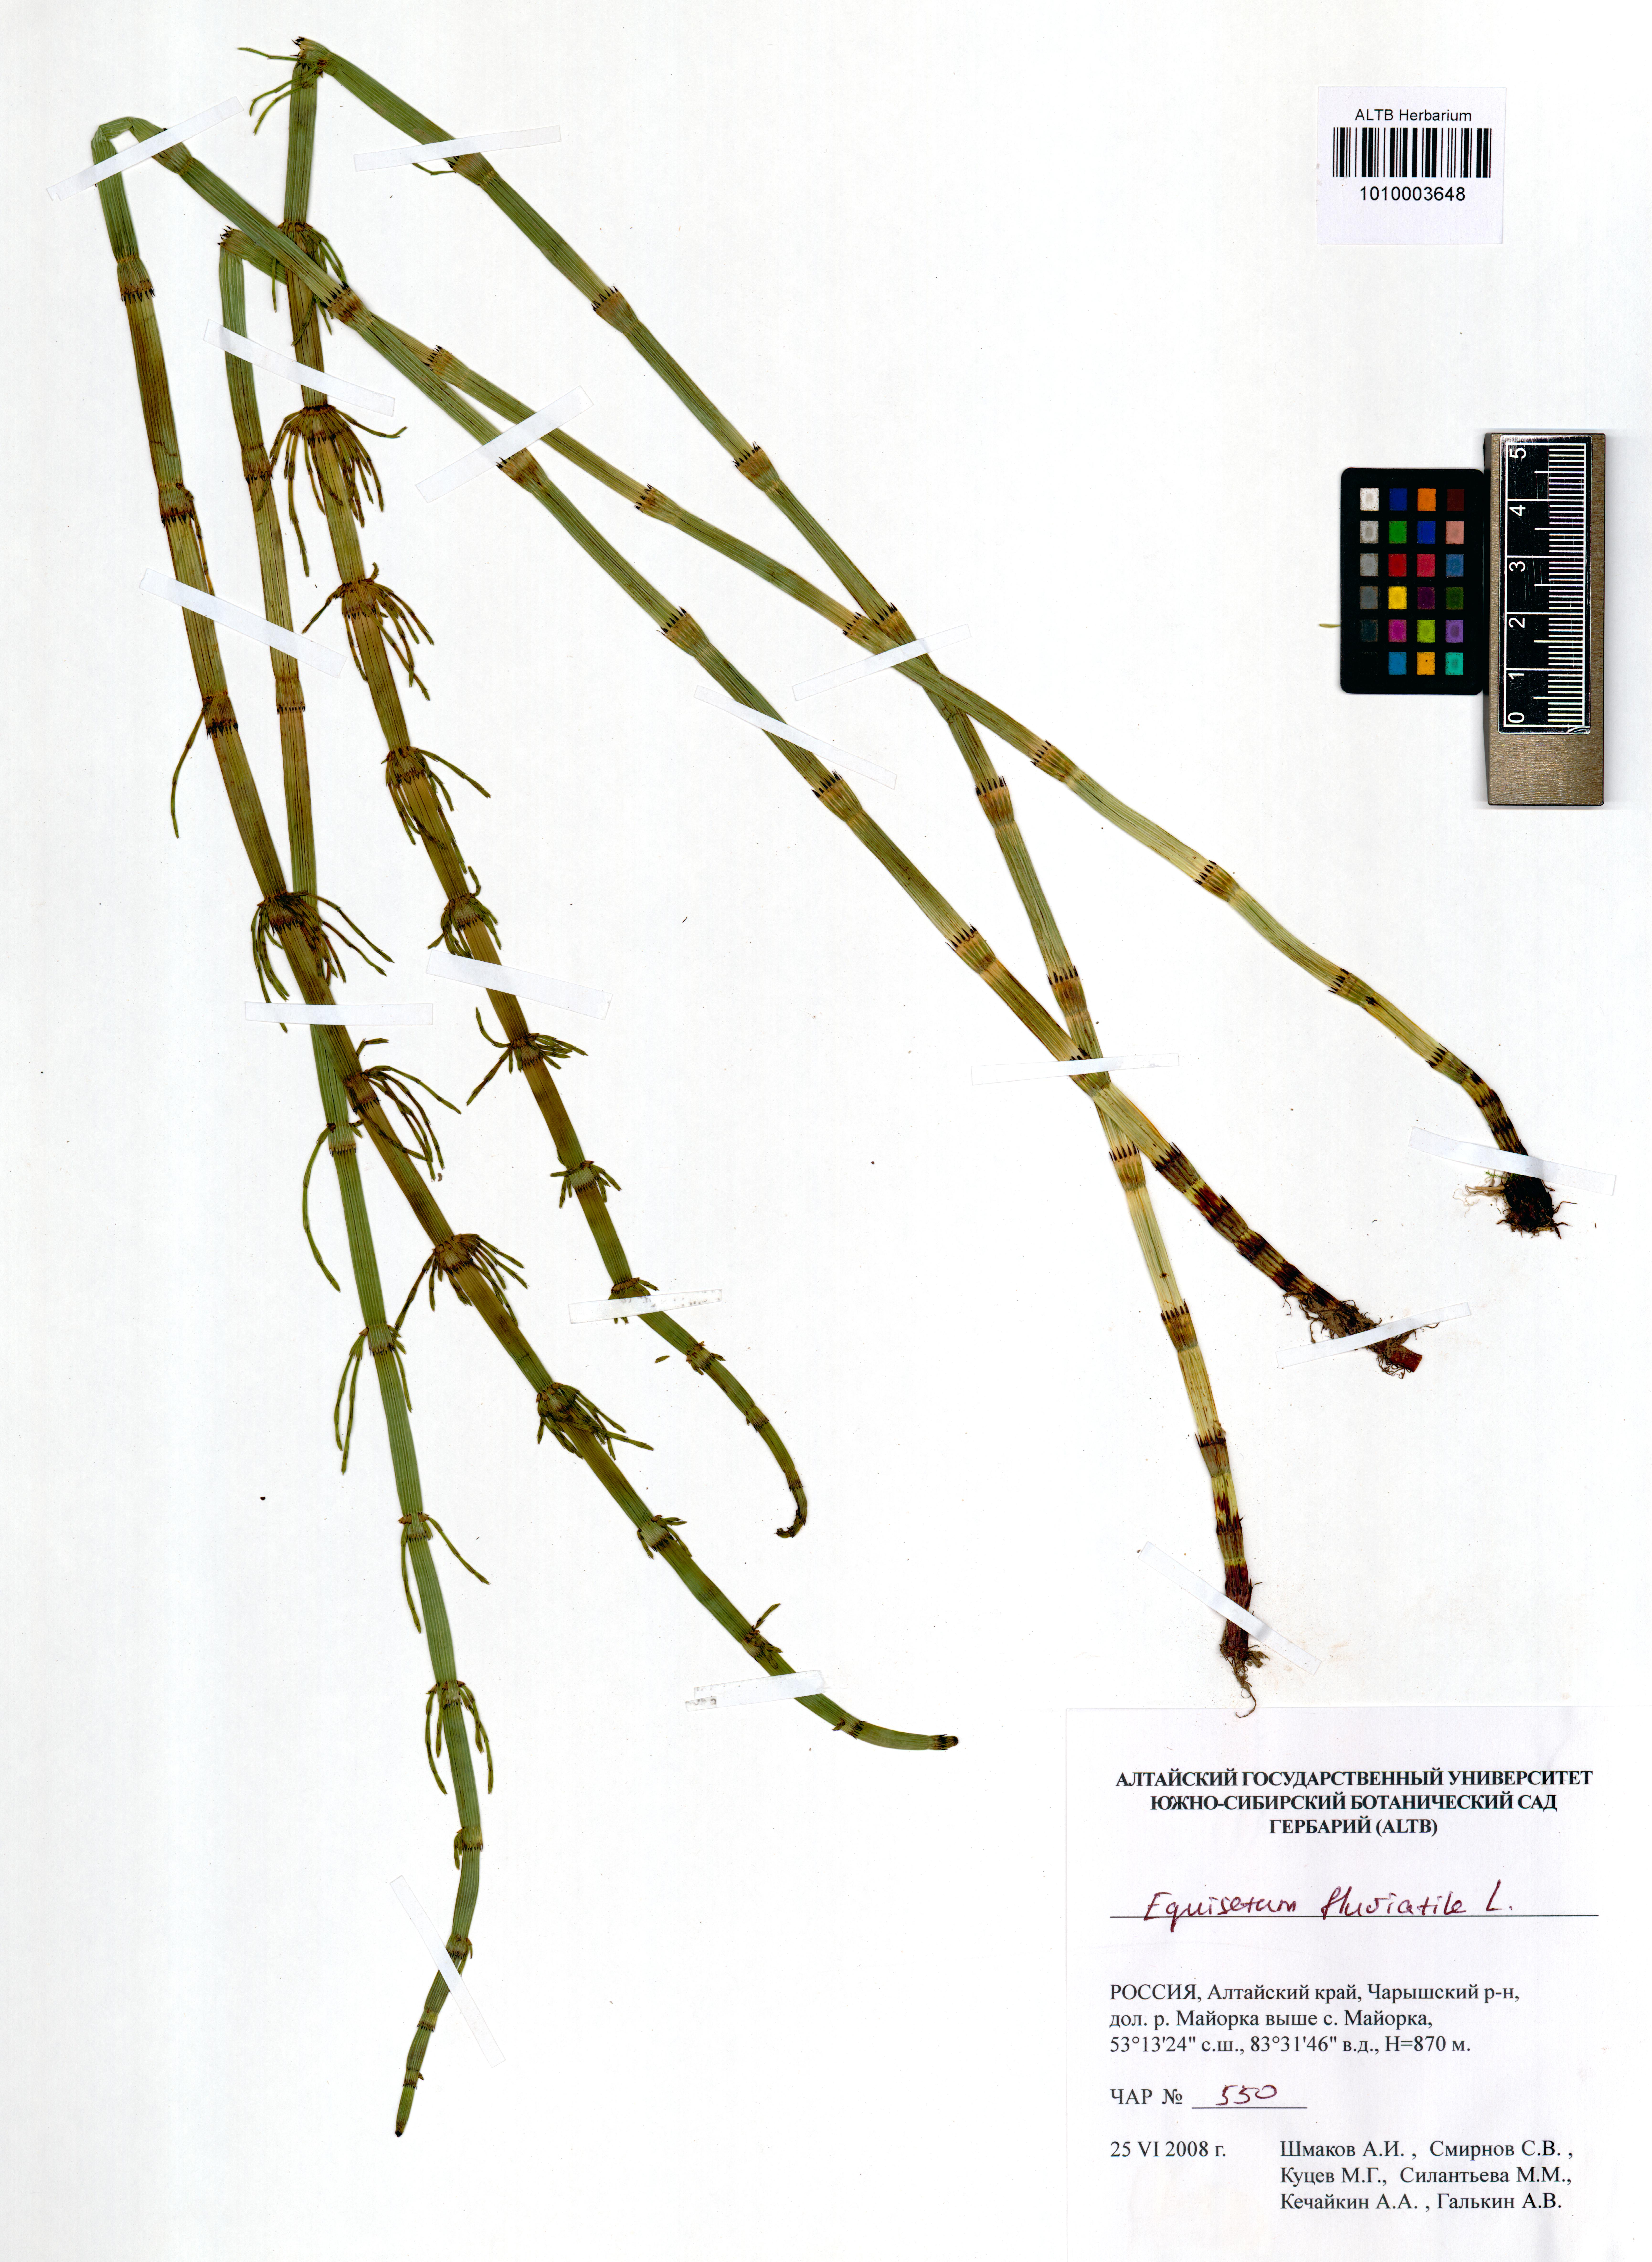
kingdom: Plantae
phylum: Tracheophyta
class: Polypodiopsida
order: Equisetales
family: Equisetaceae
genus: Equisetum
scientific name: Equisetum fluviatile
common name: Water horsetail
